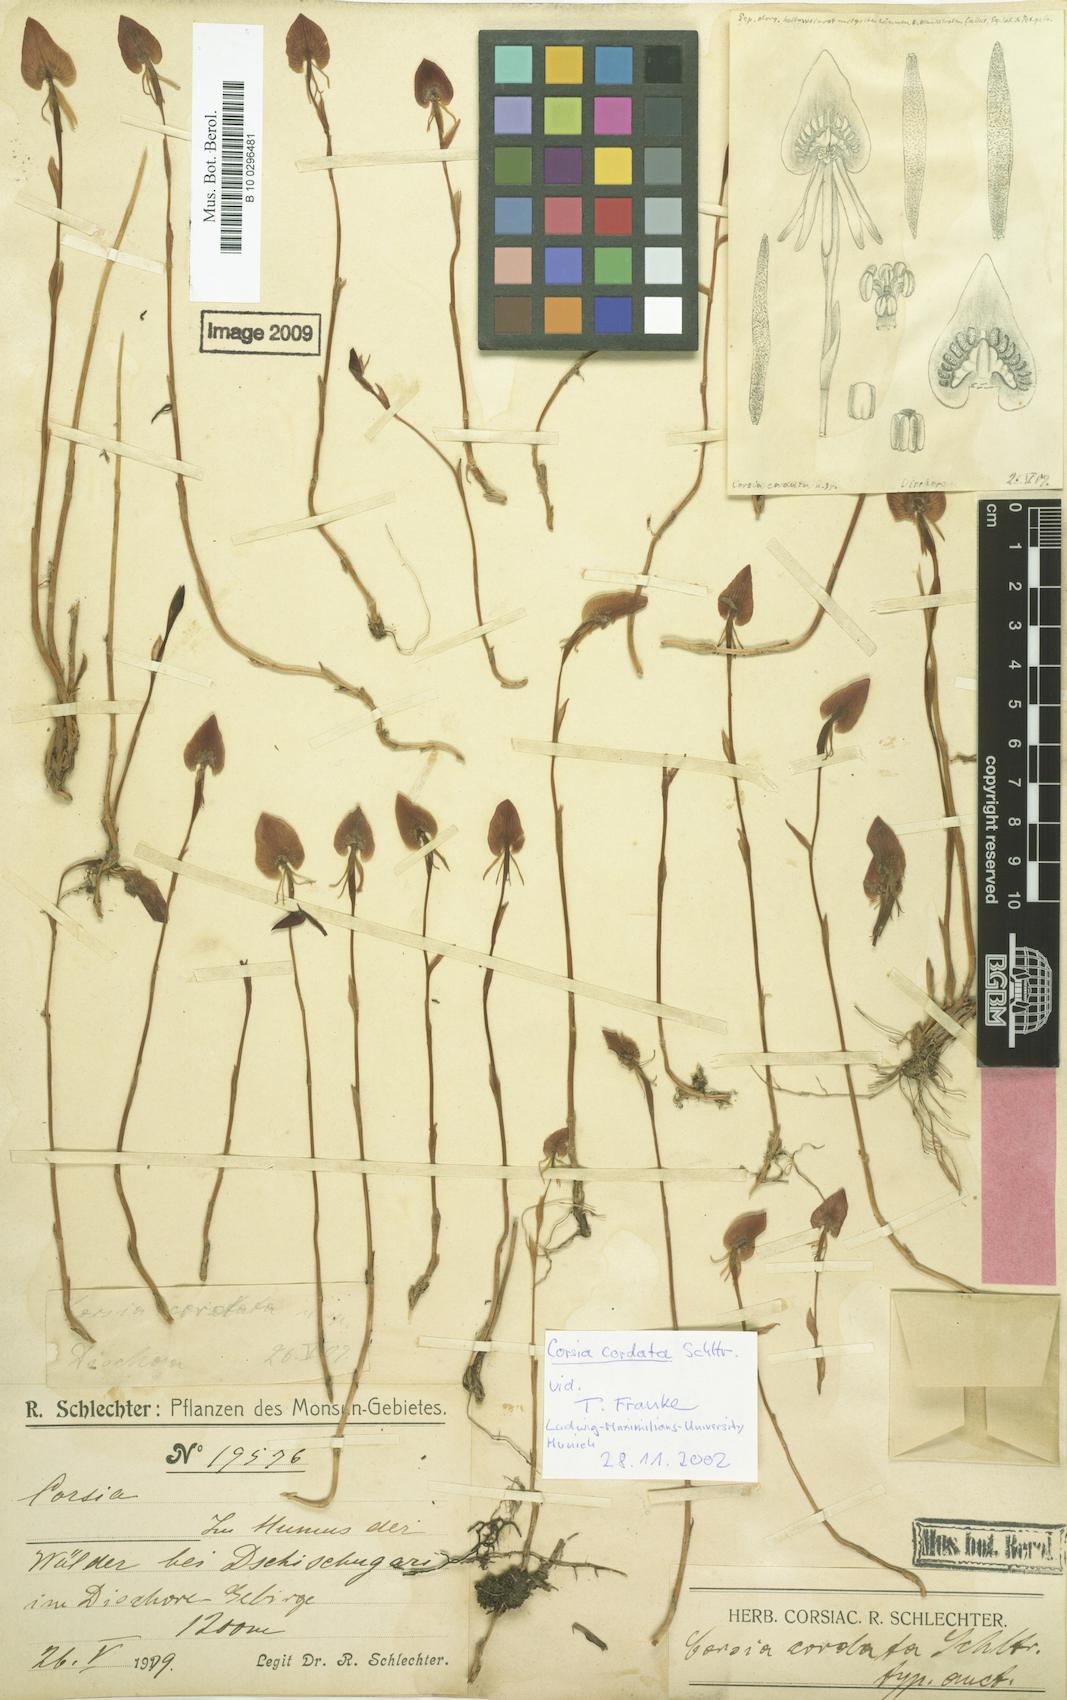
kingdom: Plantae
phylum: Tracheophyta
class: Liliopsida
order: Liliales
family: Corsiaceae
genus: Corsia
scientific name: Corsia cordata
